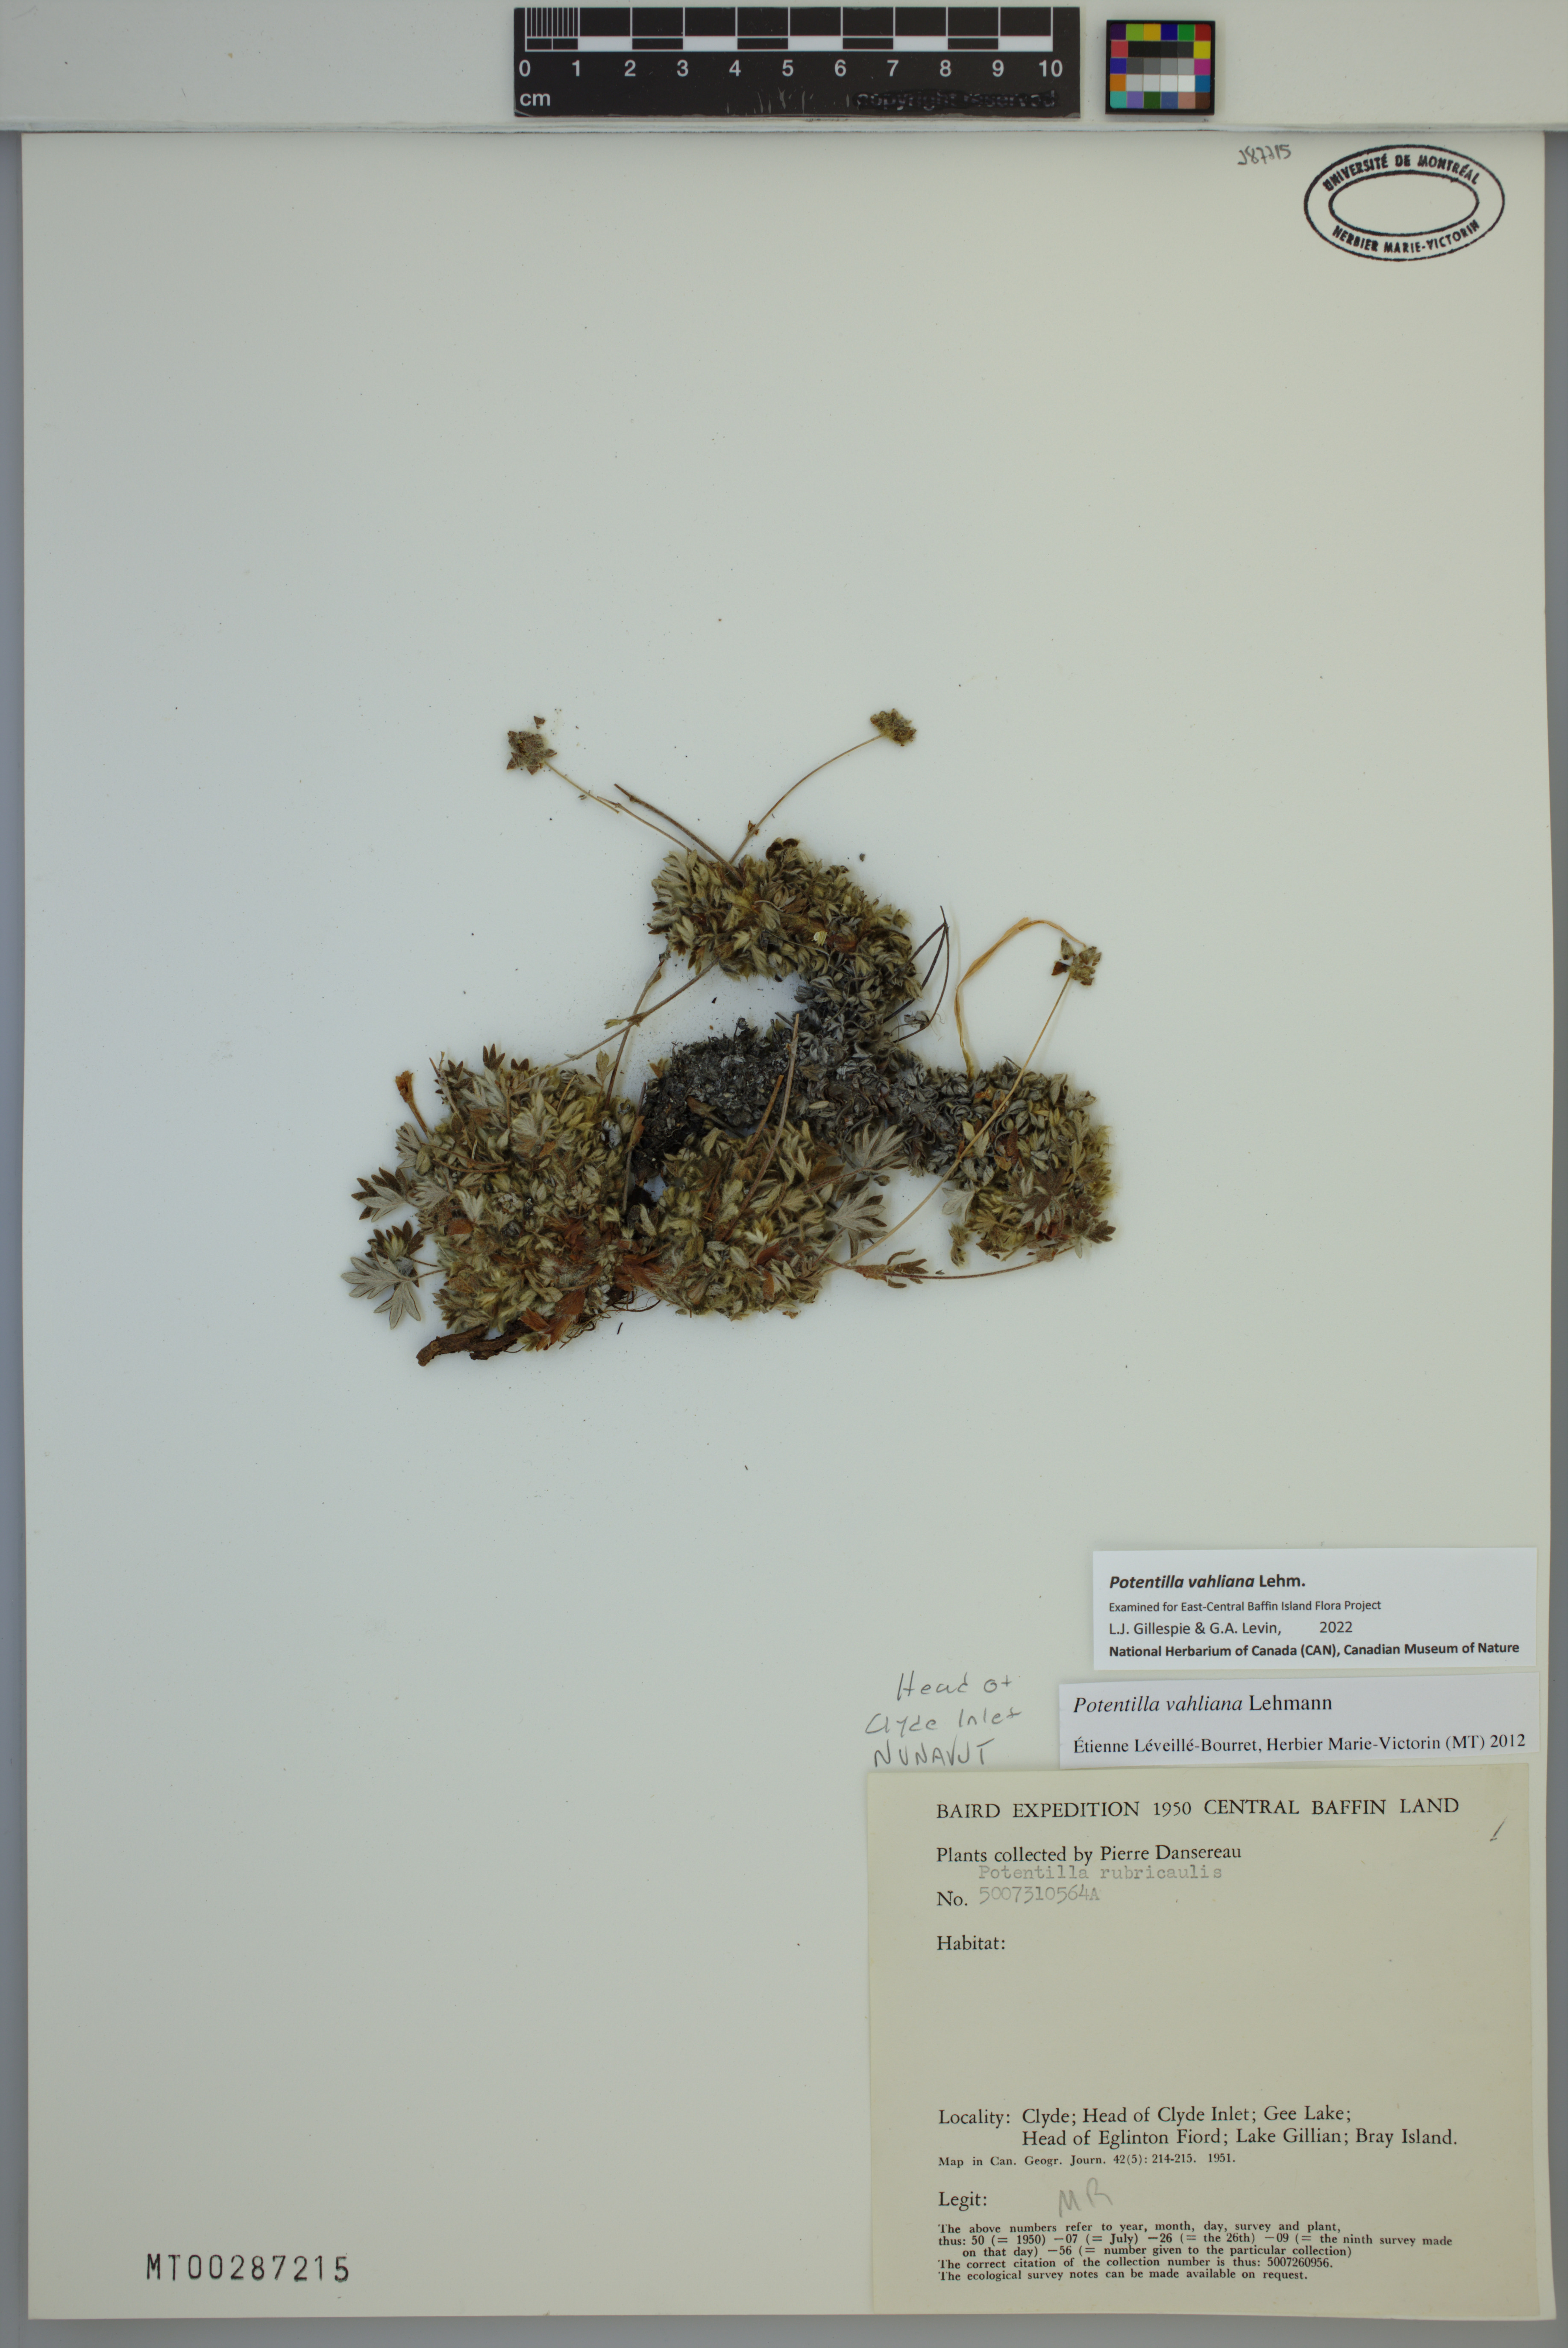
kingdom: Plantae
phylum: Tracheophyta
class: Magnoliopsida
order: Rosales
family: Rosaceae
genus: Potentilla
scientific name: Potentilla vahliana
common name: Vahl's cinquefoil
